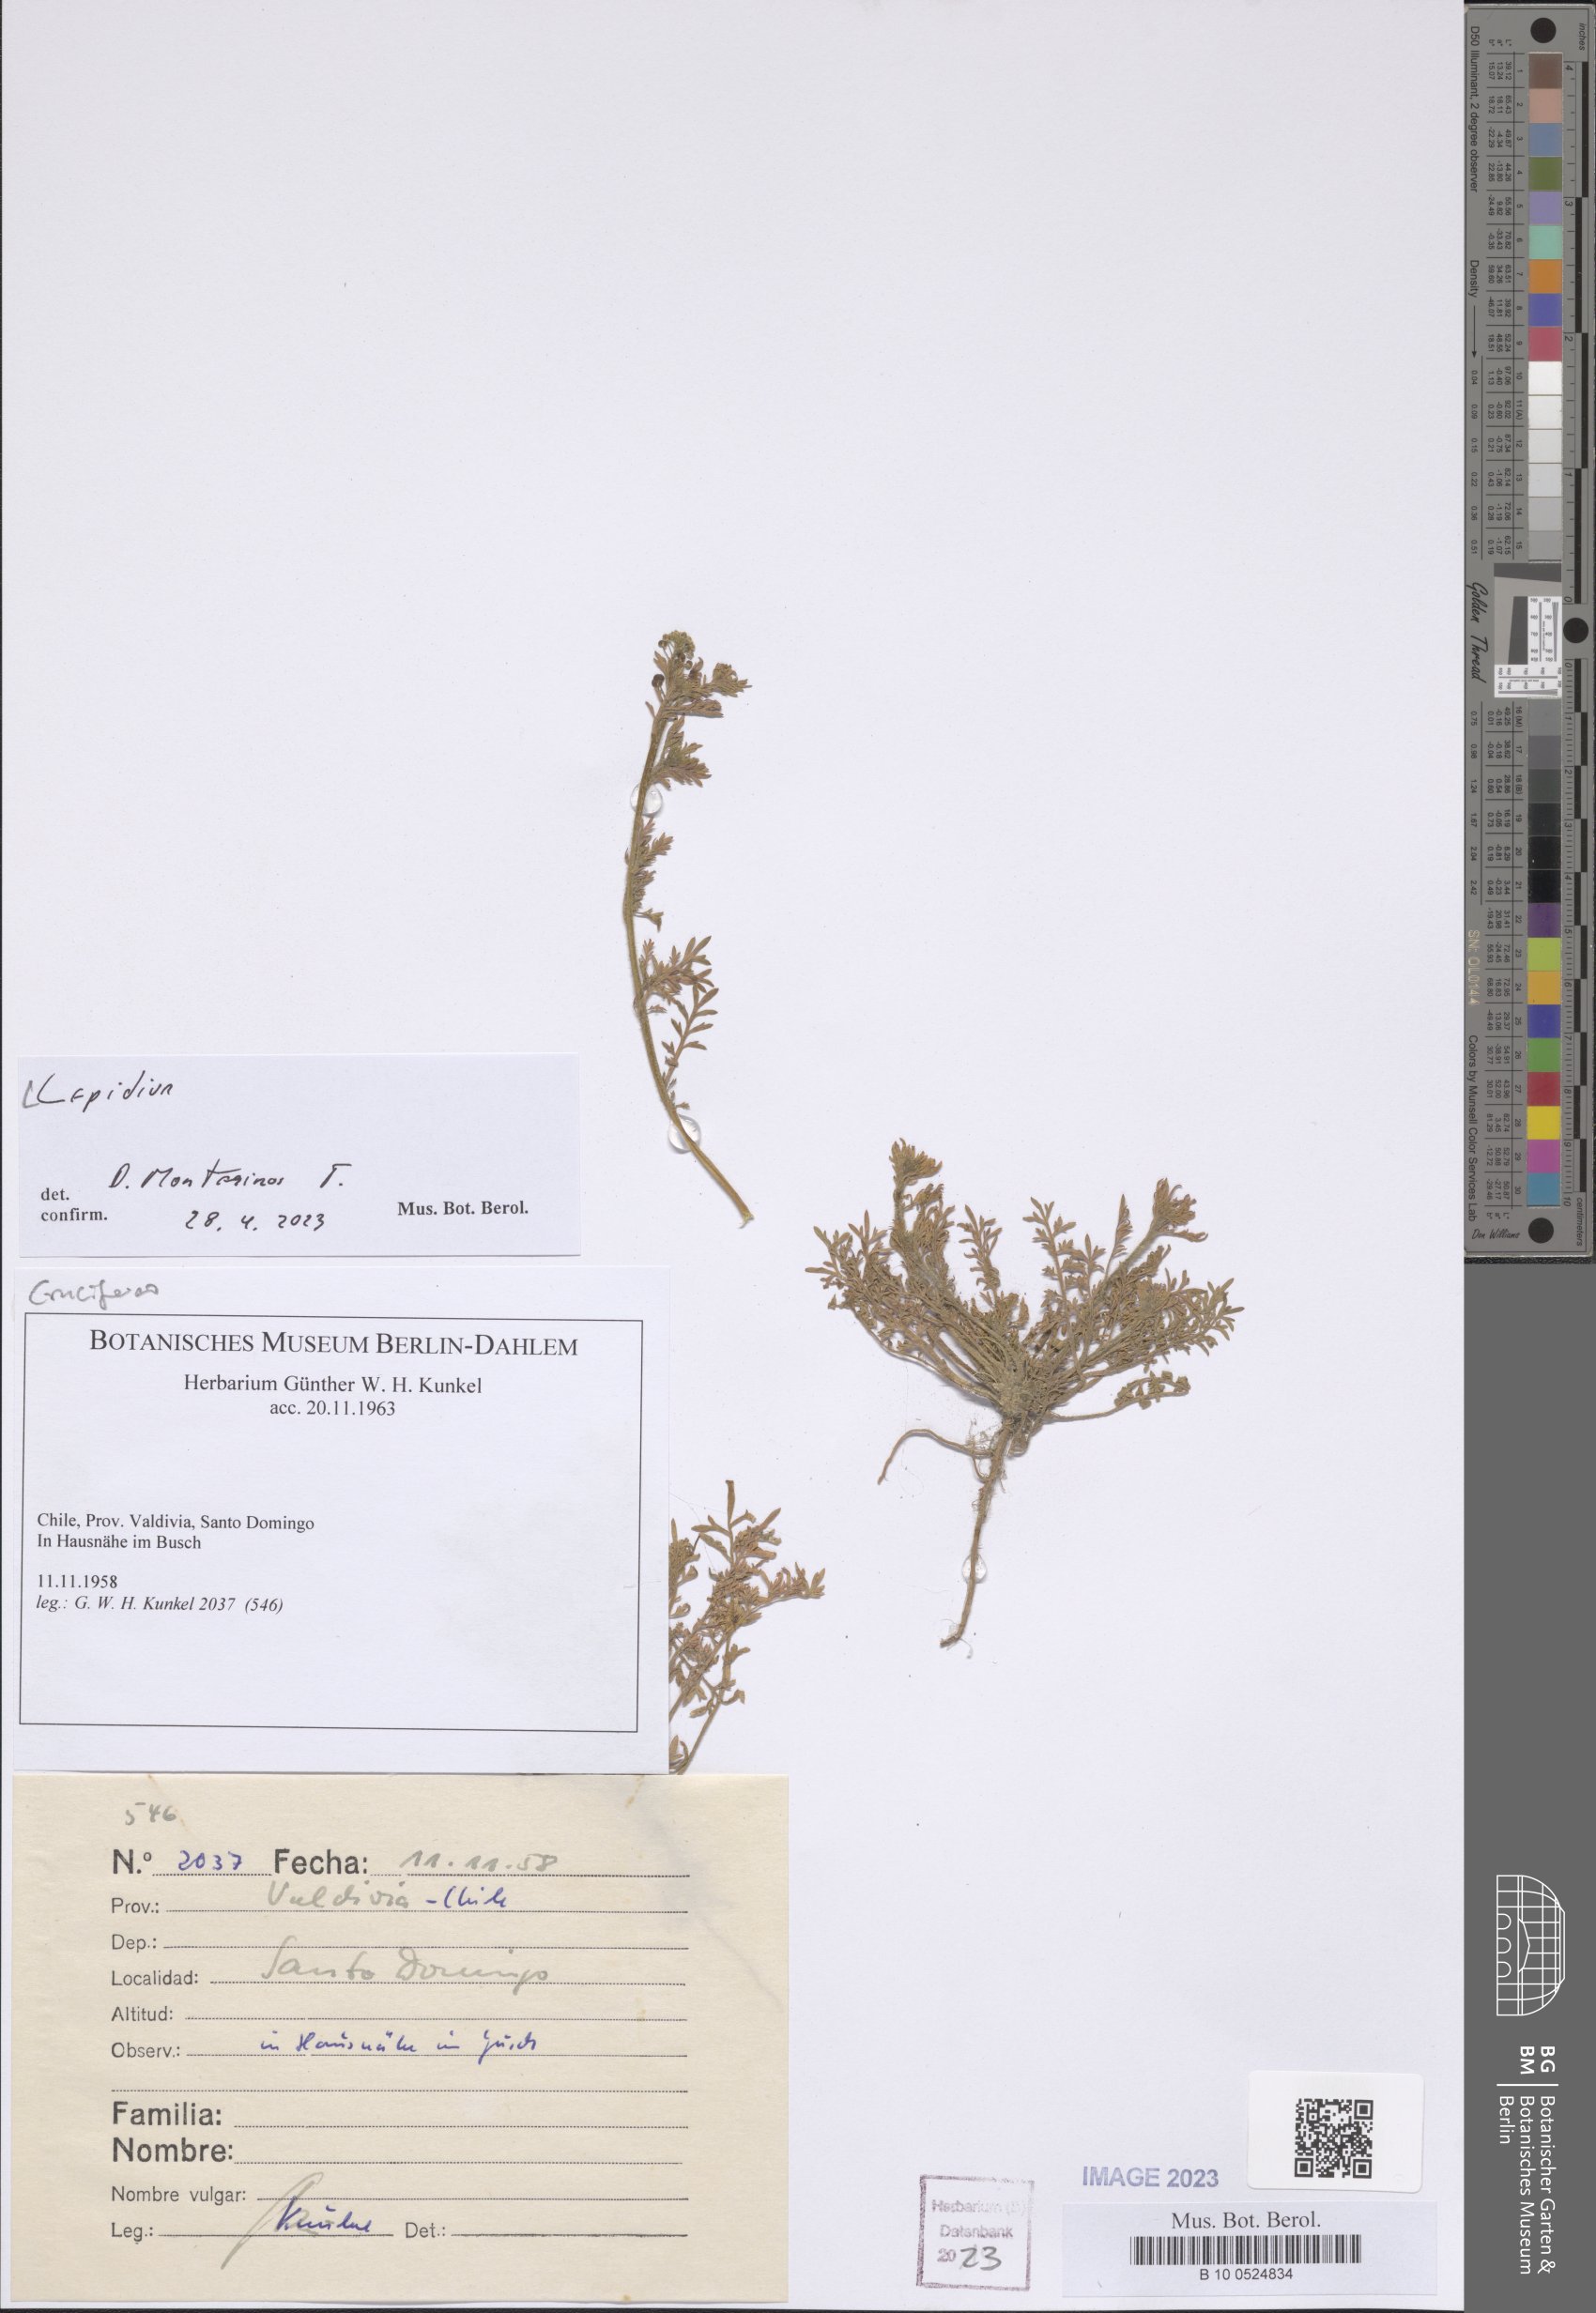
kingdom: Plantae
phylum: Tracheophyta
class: Magnoliopsida
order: Brassicales
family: Brassicaceae
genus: Lepidium
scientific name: Lepidium
